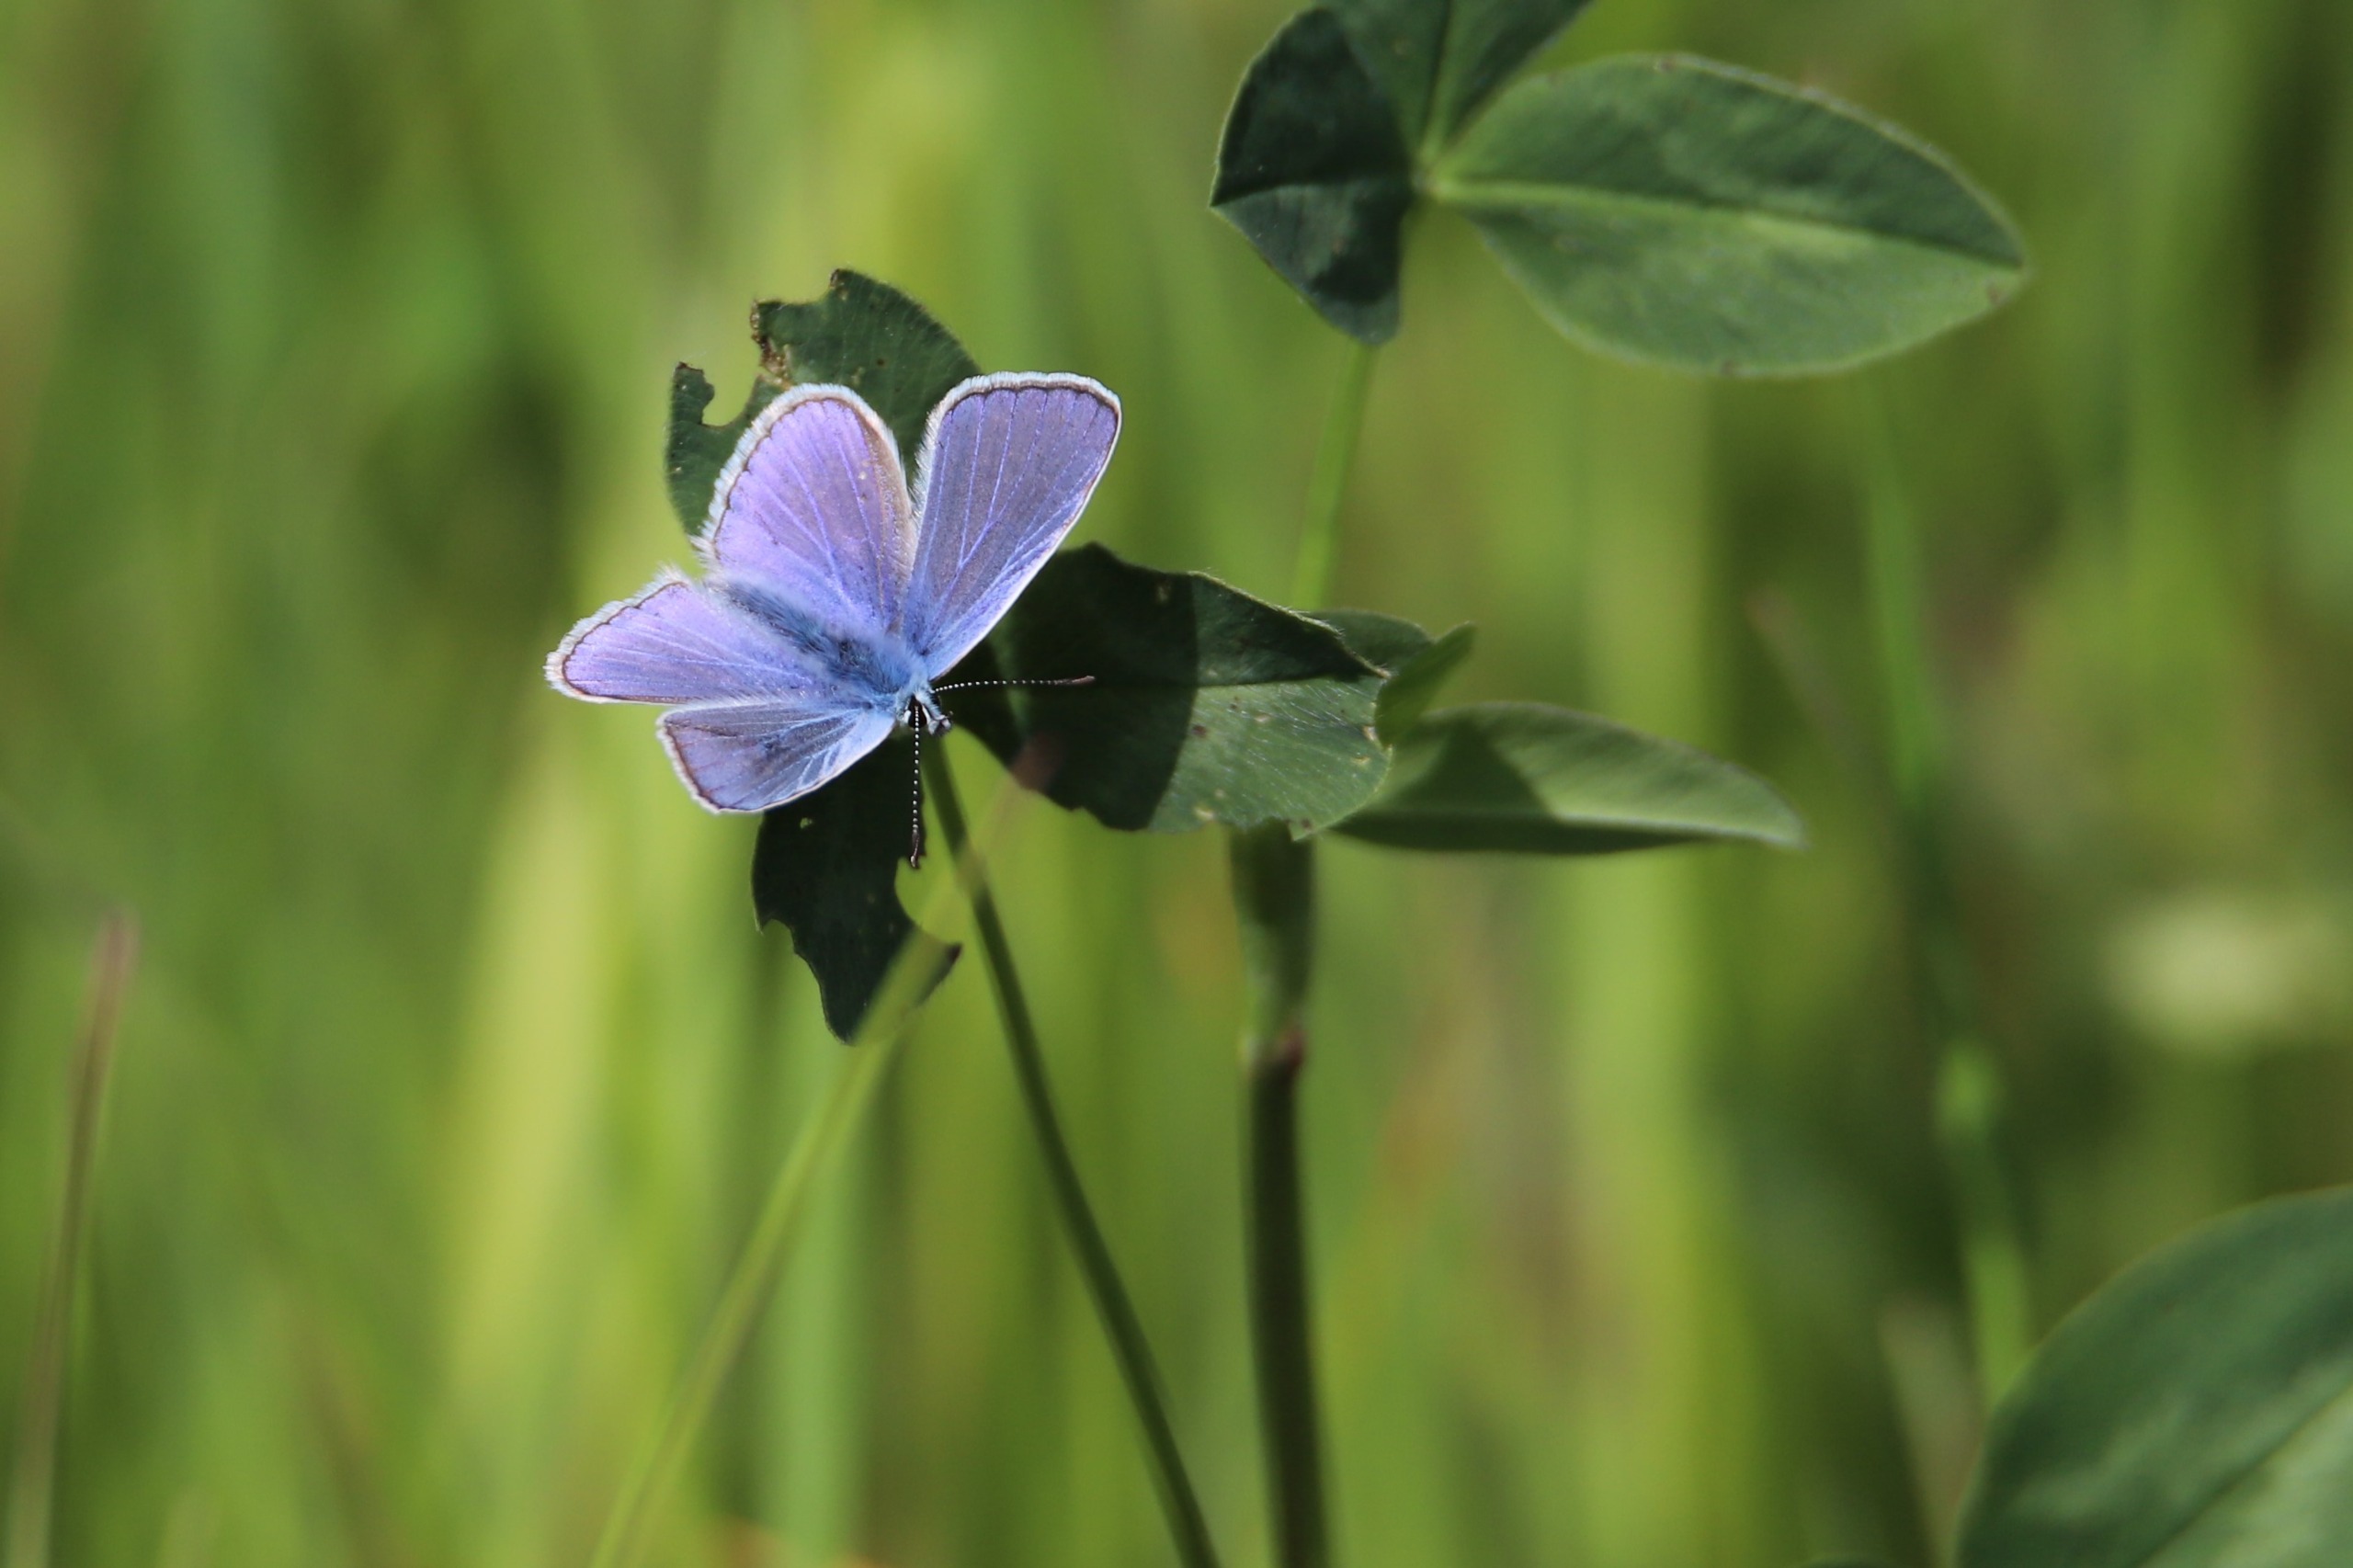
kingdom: Animalia
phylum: Arthropoda
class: Insecta
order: Lepidoptera
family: Lycaenidae
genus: Polyommatus
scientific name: Polyommatus icarus
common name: Almindelig blåfugl
